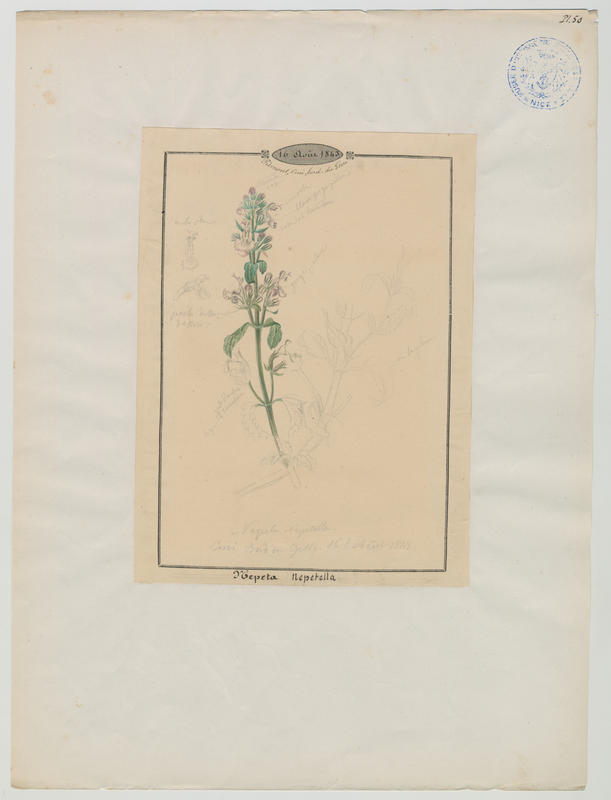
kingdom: Plantae
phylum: Tracheophyta
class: Magnoliopsida
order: Lamiales
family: Lamiaceae
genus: Nepeta
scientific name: Nepeta nepetella
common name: Lesser catmint
